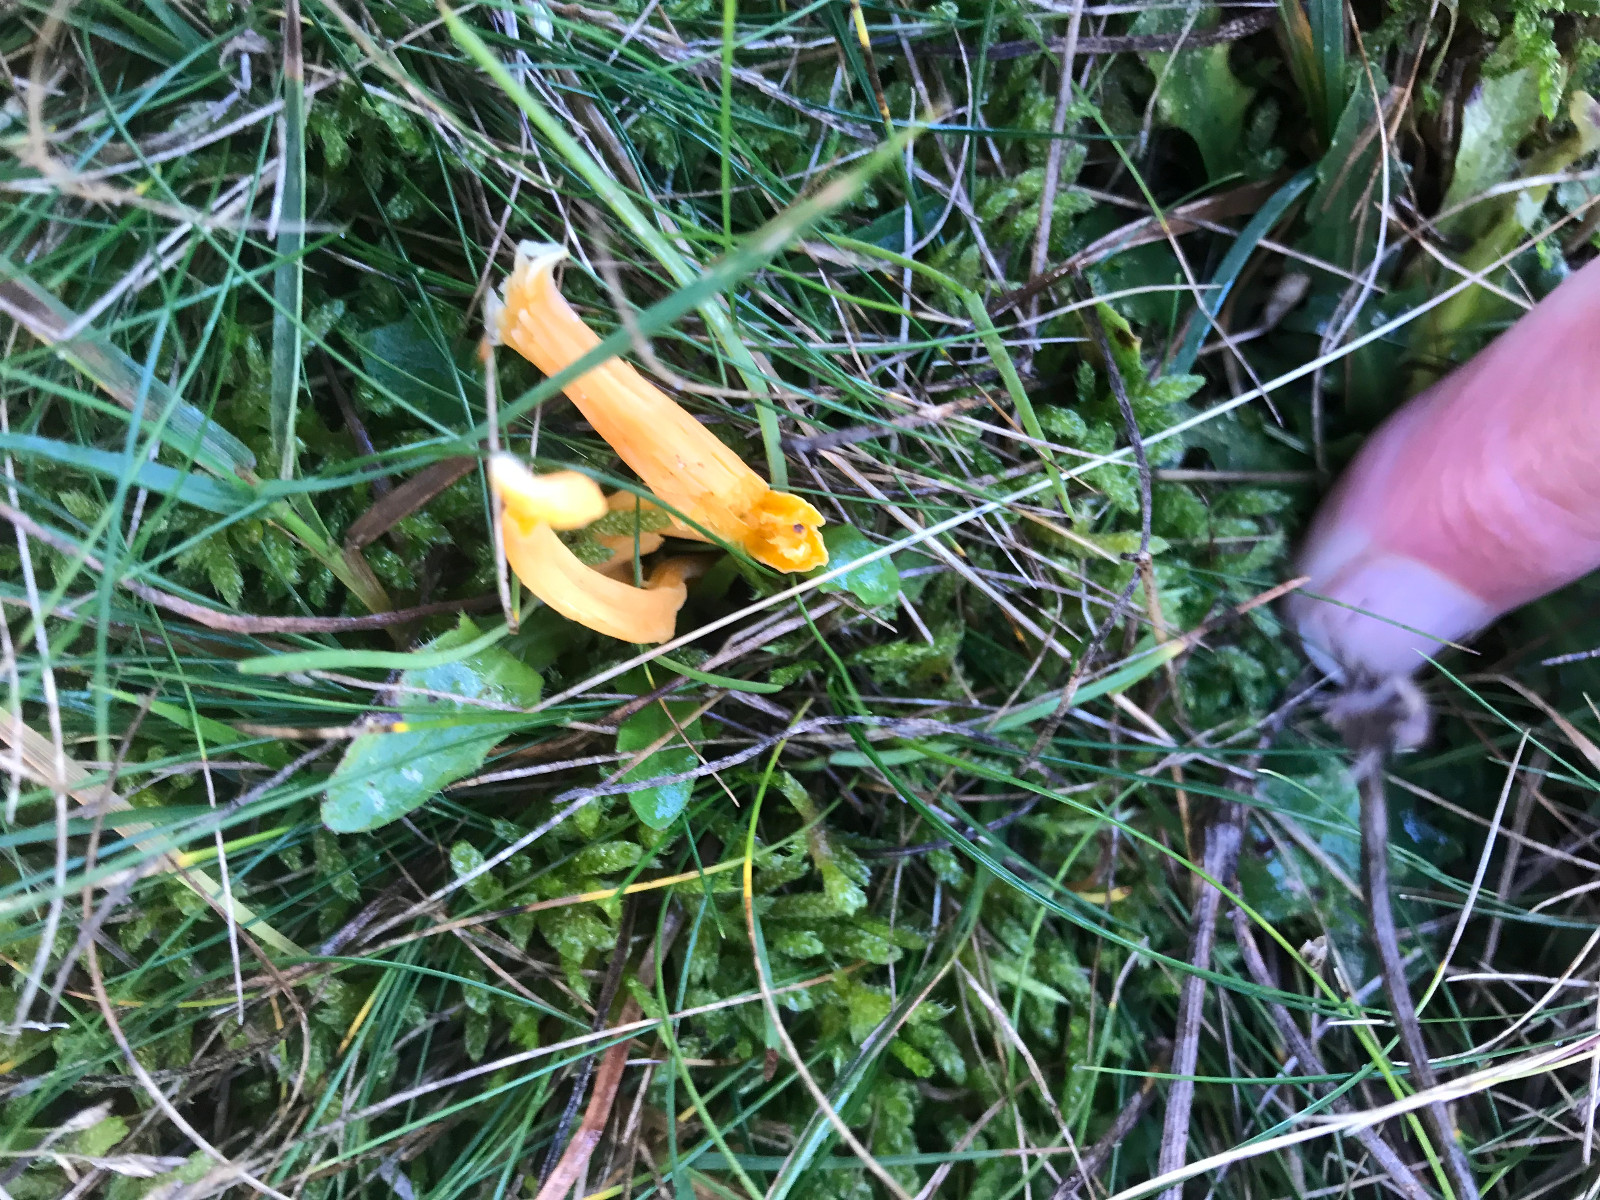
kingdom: Fungi
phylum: Basidiomycota
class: Agaricomycetes
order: Agaricales
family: Clavariaceae
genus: Clavulinopsis
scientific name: Clavulinopsis
